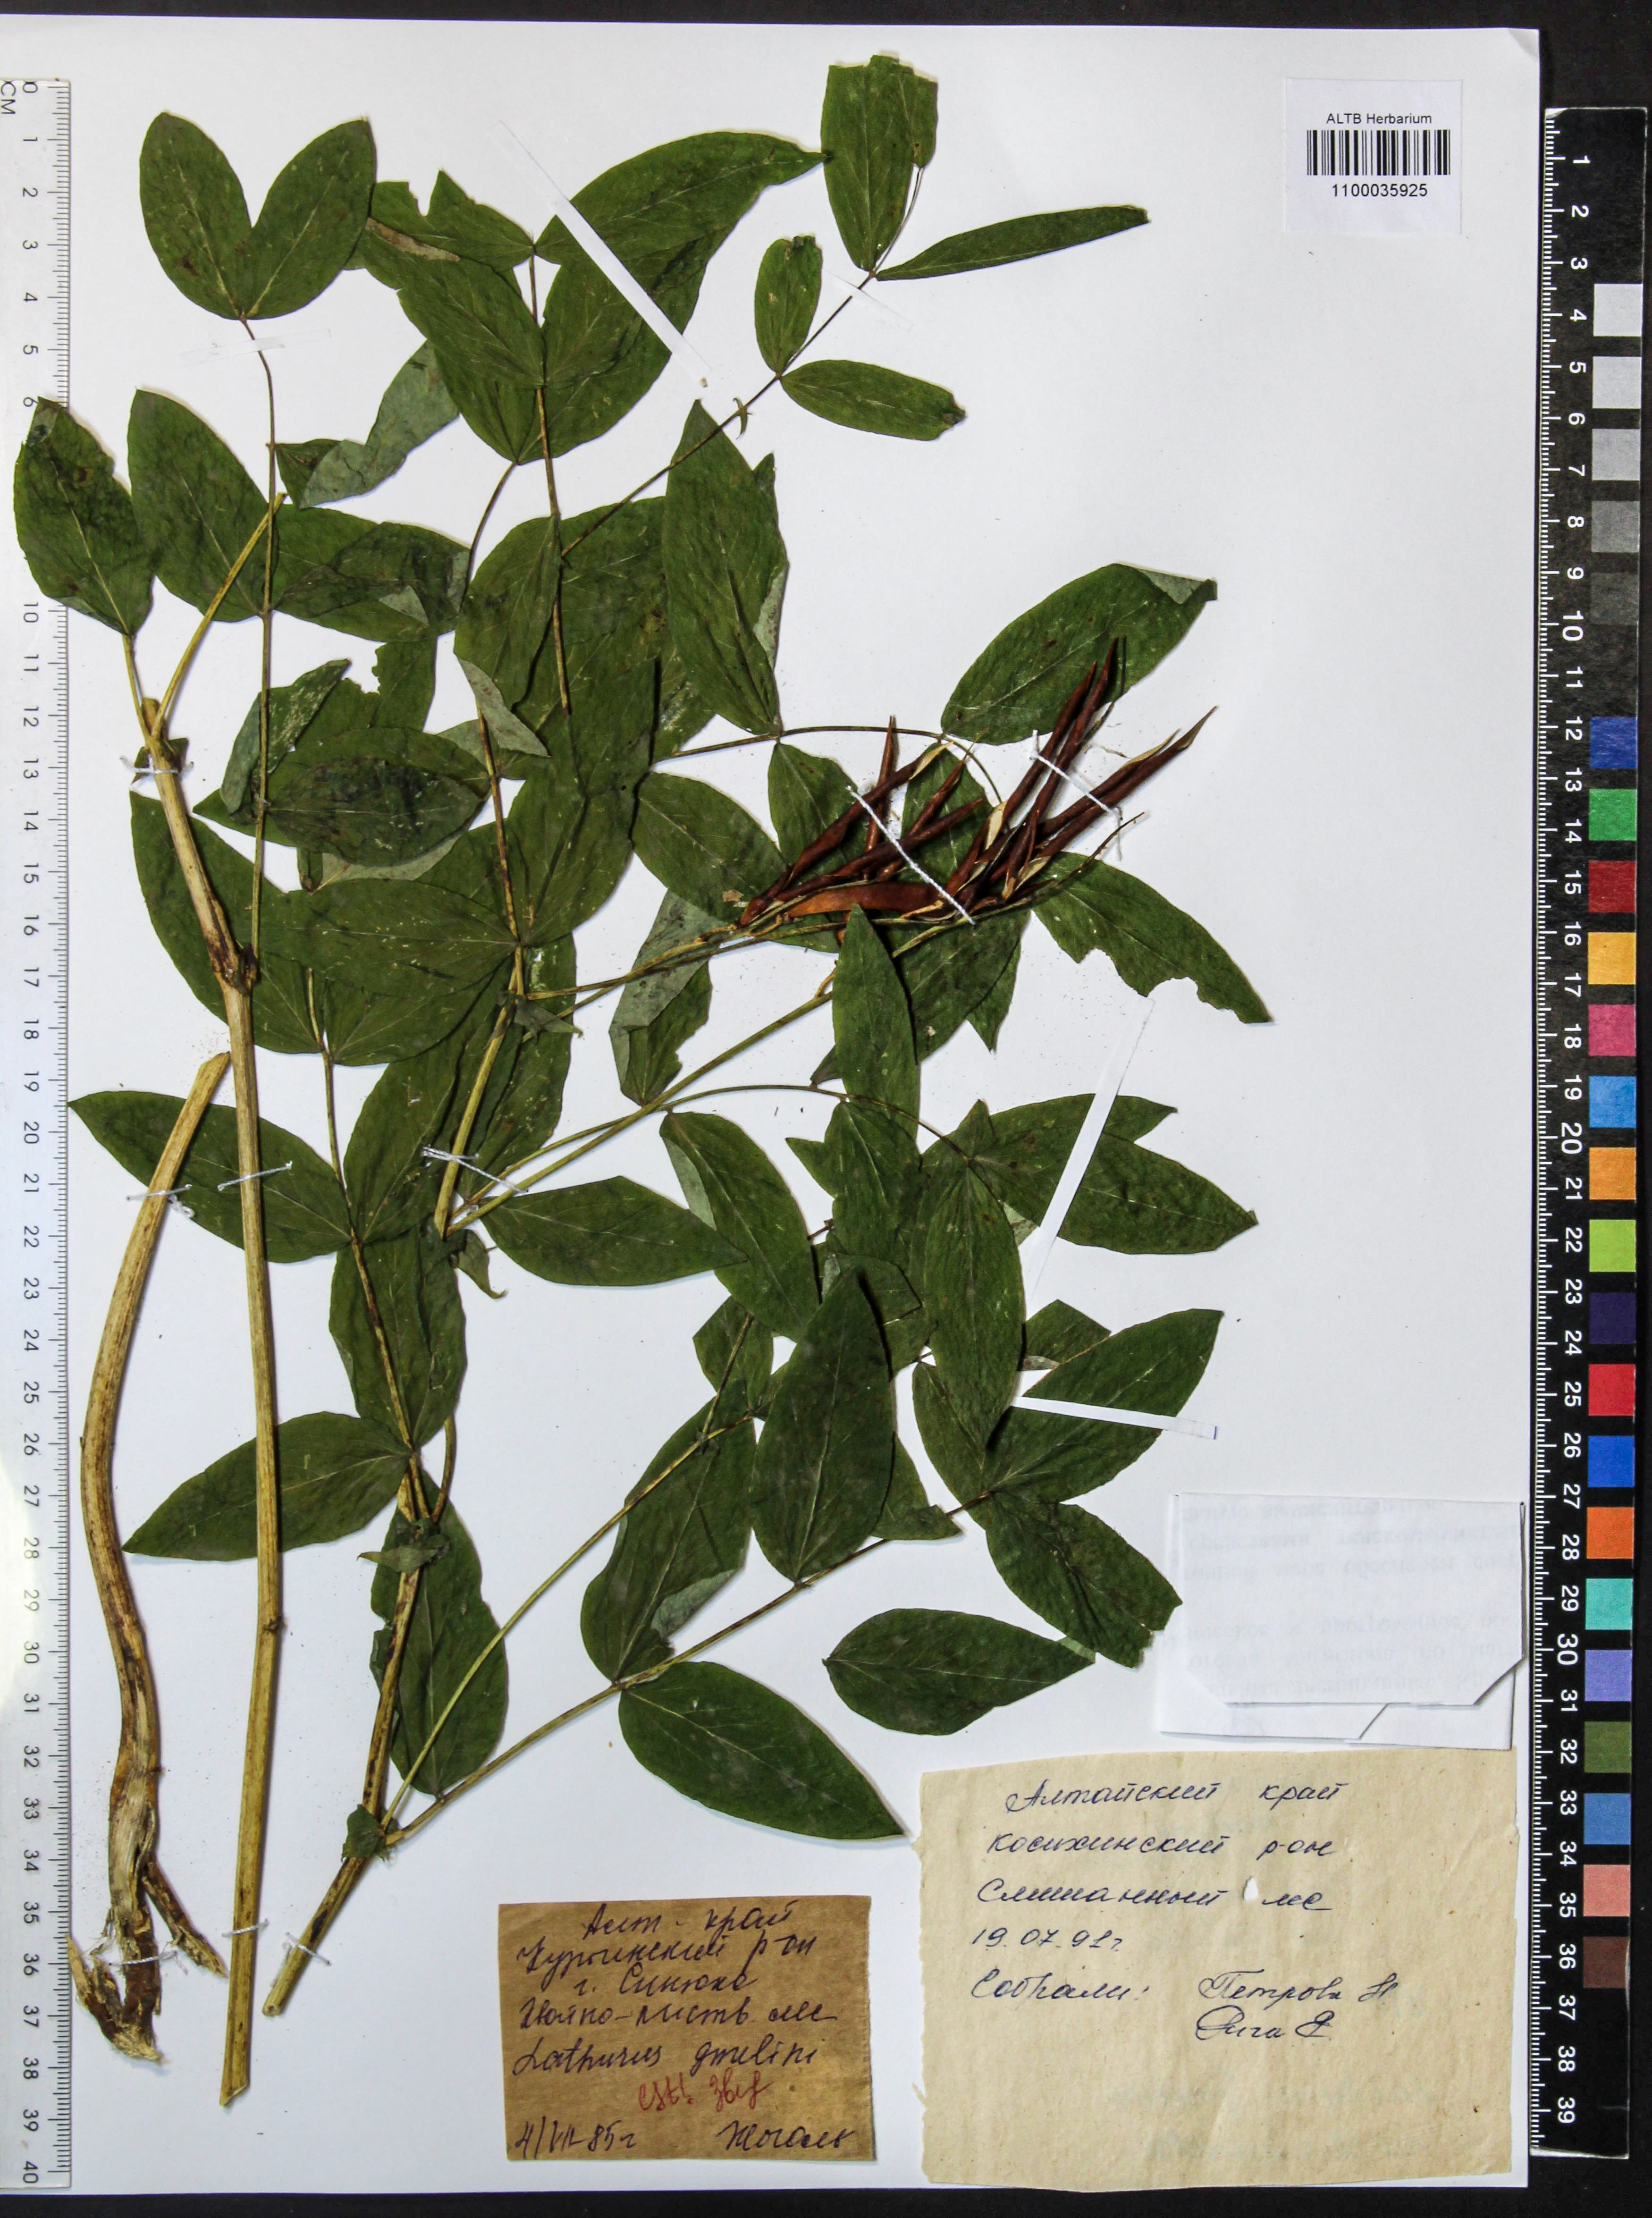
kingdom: Plantae
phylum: Tracheophyta
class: Magnoliopsida
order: Fabales
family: Fabaceae
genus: Lathyrus
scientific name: Lathyrus gmelinii
